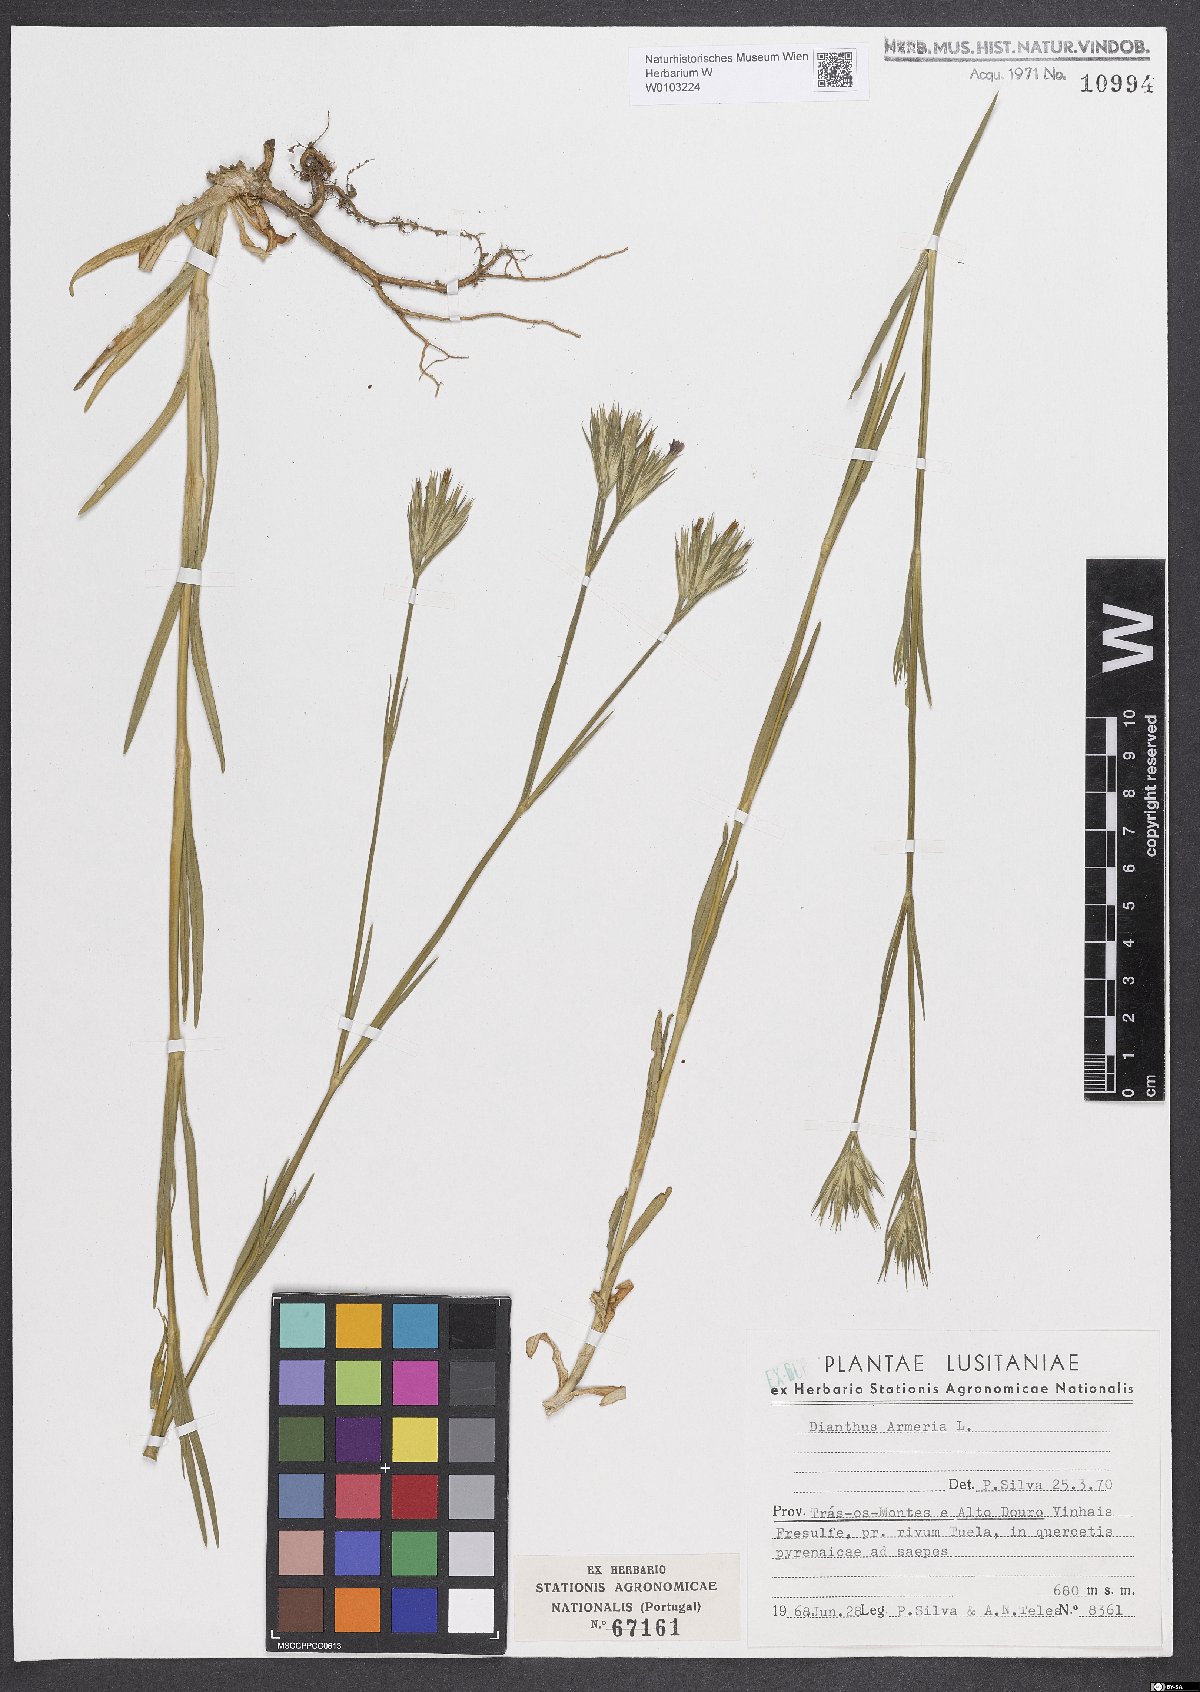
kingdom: Plantae
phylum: Tracheophyta
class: Magnoliopsida
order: Caryophyllales
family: Caryophyllaceae
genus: Dianthus
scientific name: Dianthus armeria
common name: Deptford pink
